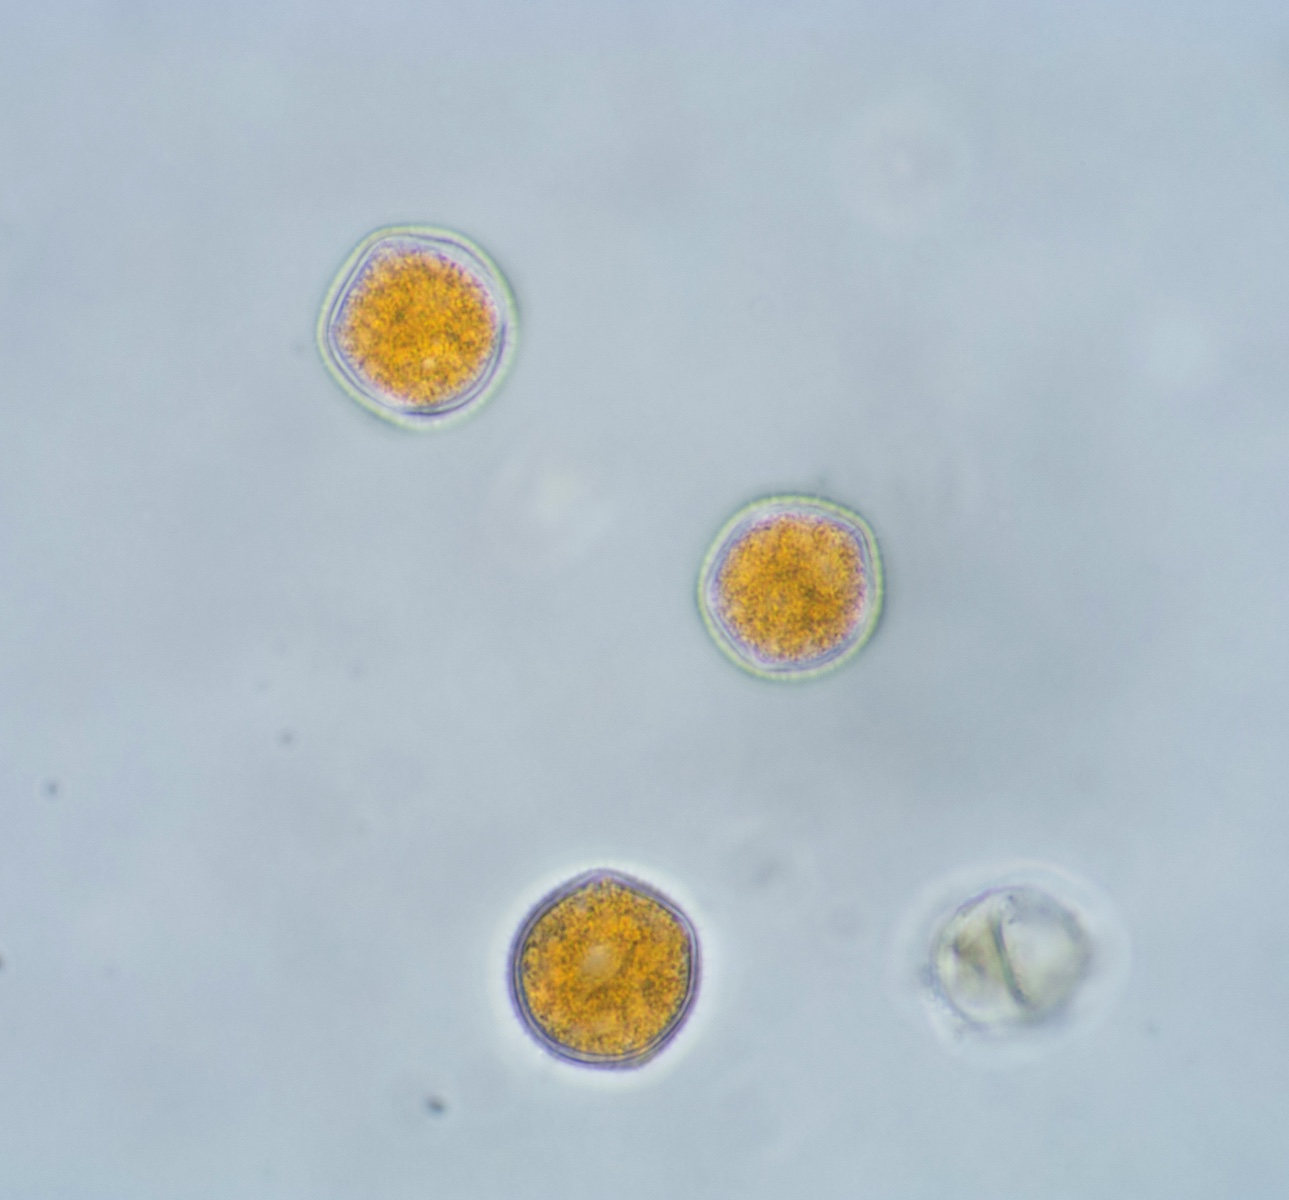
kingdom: Fungi
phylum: Basidiomycota
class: Pucciniomycetes
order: Pucciniales
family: Phragmidiaceae
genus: Phragmidium
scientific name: Phragmidium potentillae
